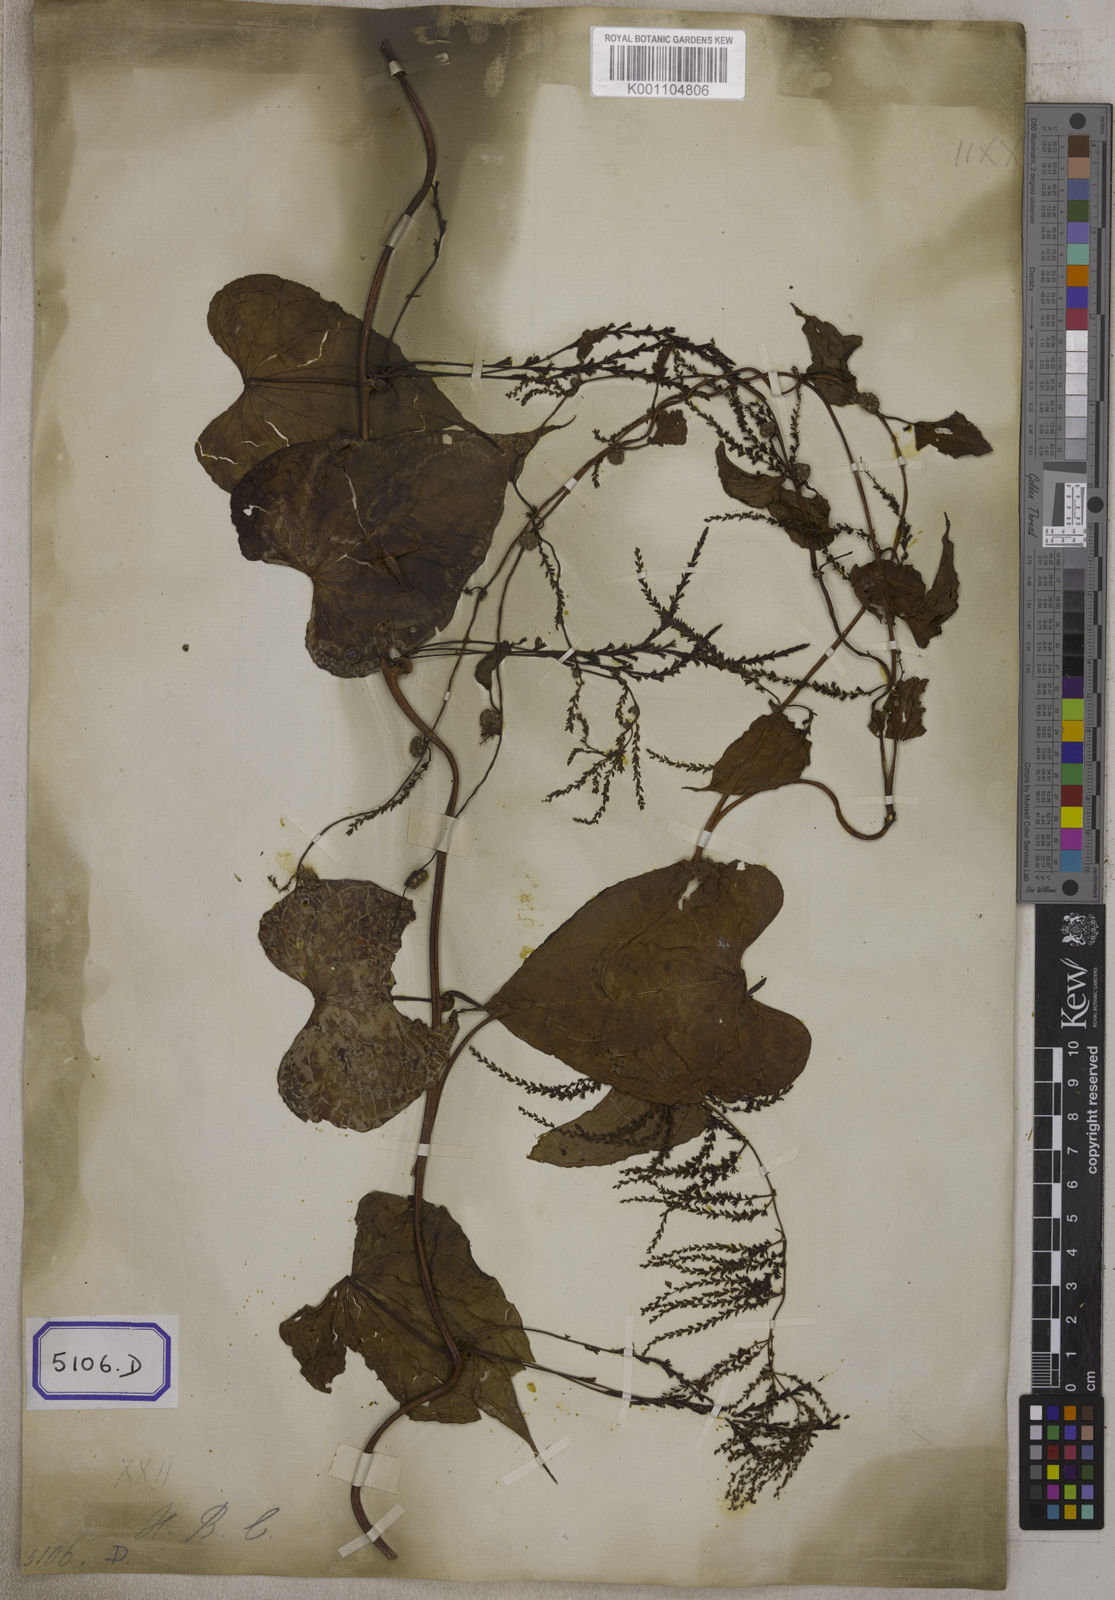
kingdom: Plantae
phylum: Tracheophyta
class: Liliopsida
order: Dioscoreales
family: Dioscoreaceae
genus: Dioscorea
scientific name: Dioscorea
